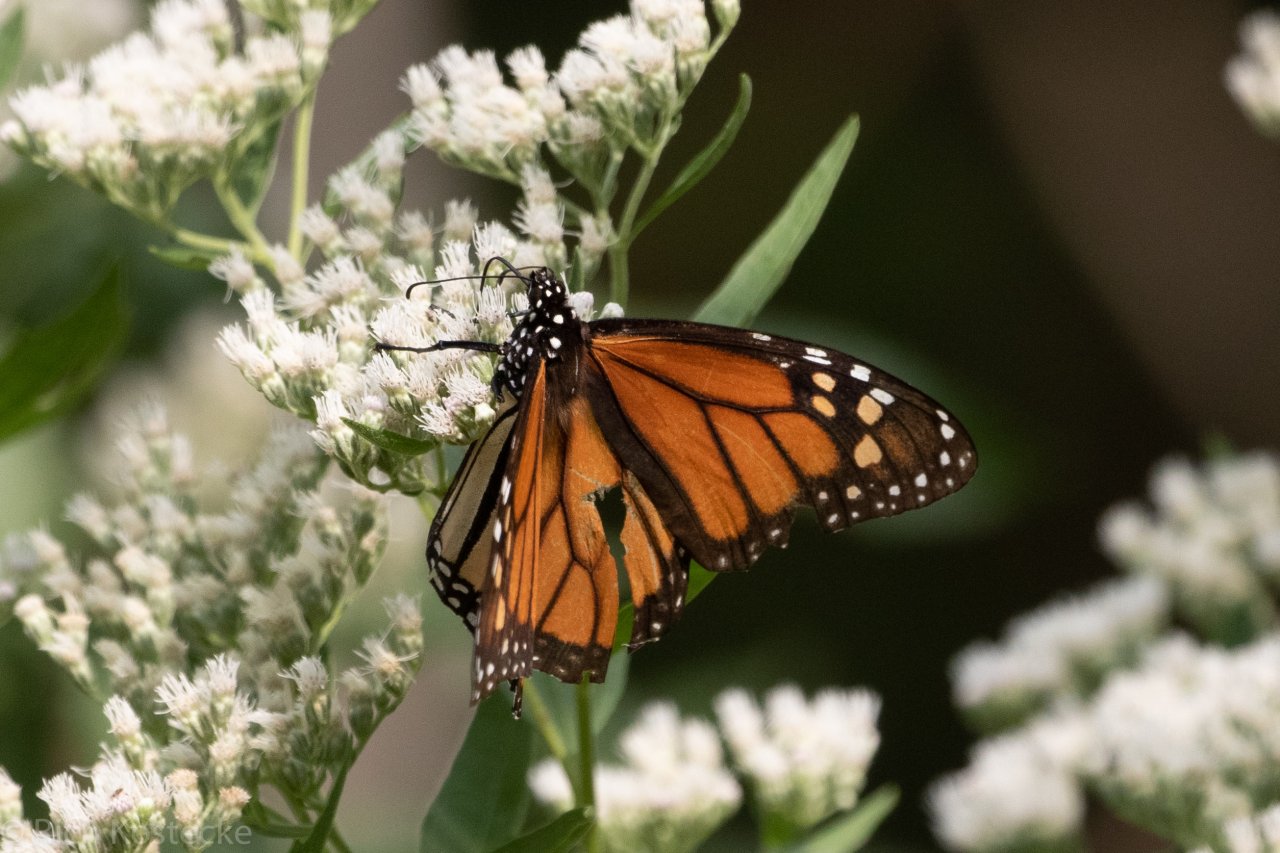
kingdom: Animalia
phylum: Arthropoda
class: Insecta
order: Lepidoptera
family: Nymphalidae
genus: Danaus
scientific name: Danaus plexippus
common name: Monarch
